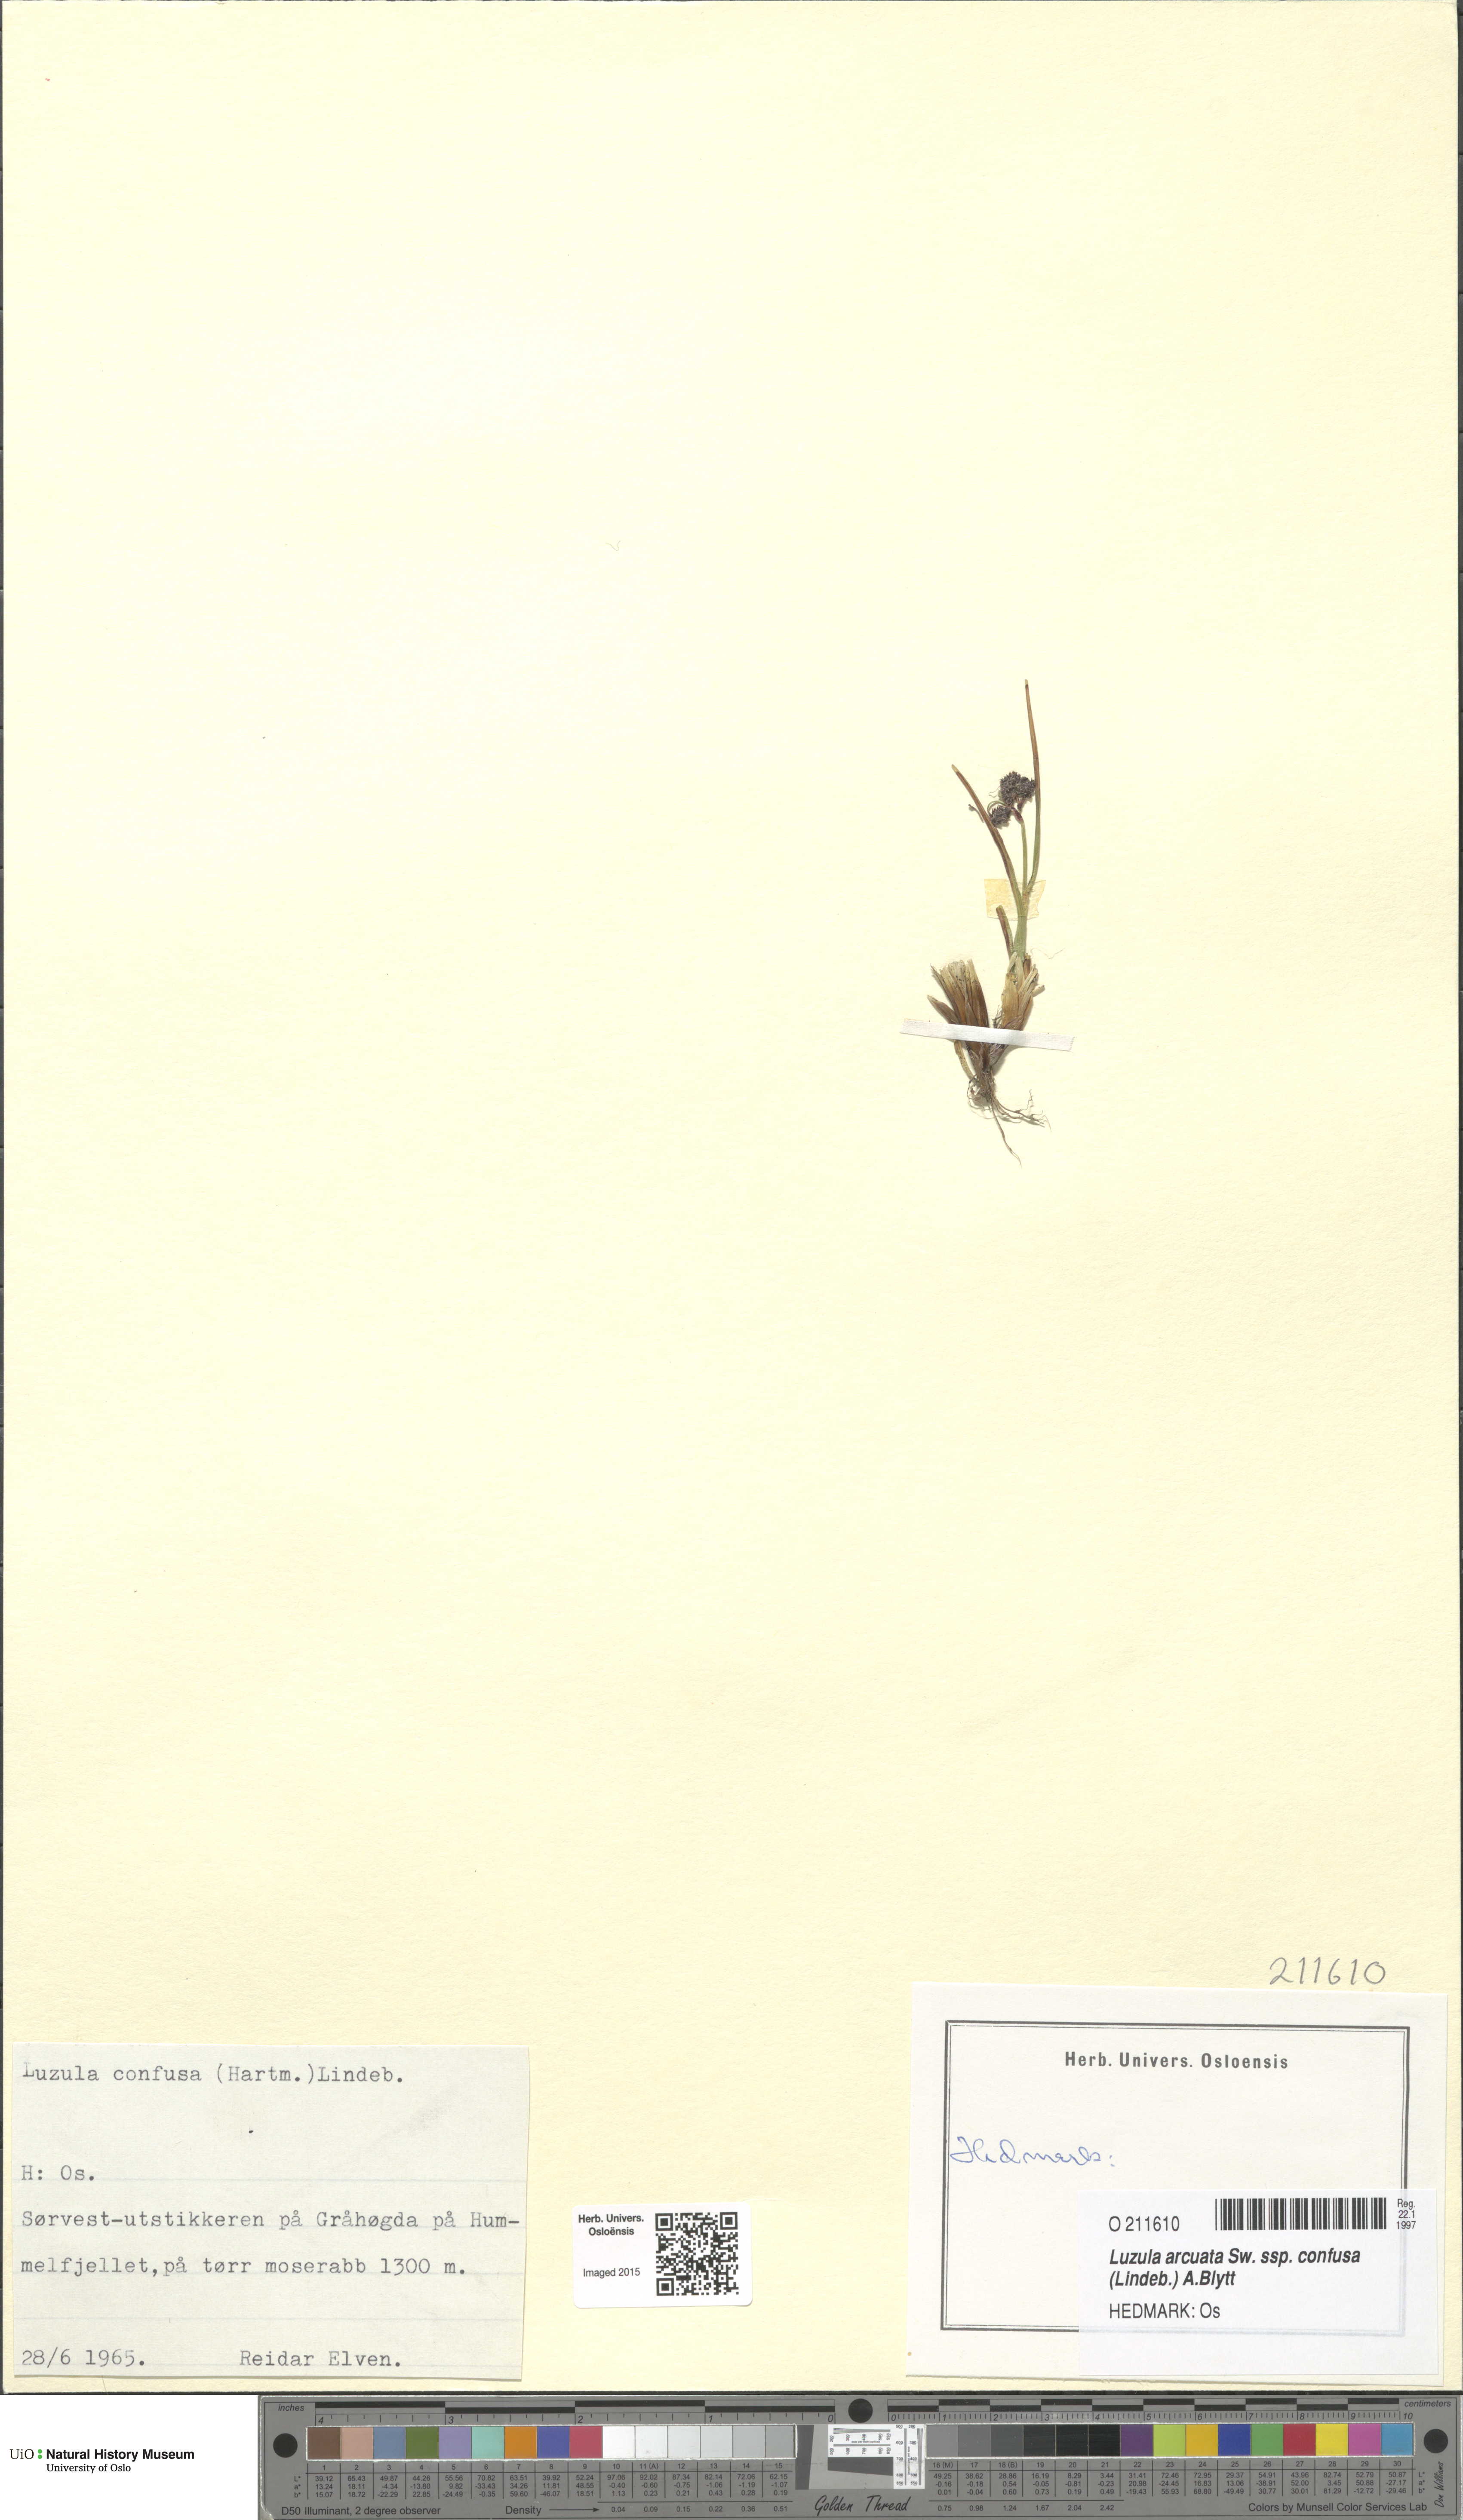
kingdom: Plantae
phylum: Tracheophyta
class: Liliopsida
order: Poales
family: Juncaceae
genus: Luzula
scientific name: Luzula confusa
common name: Northern wood rush
